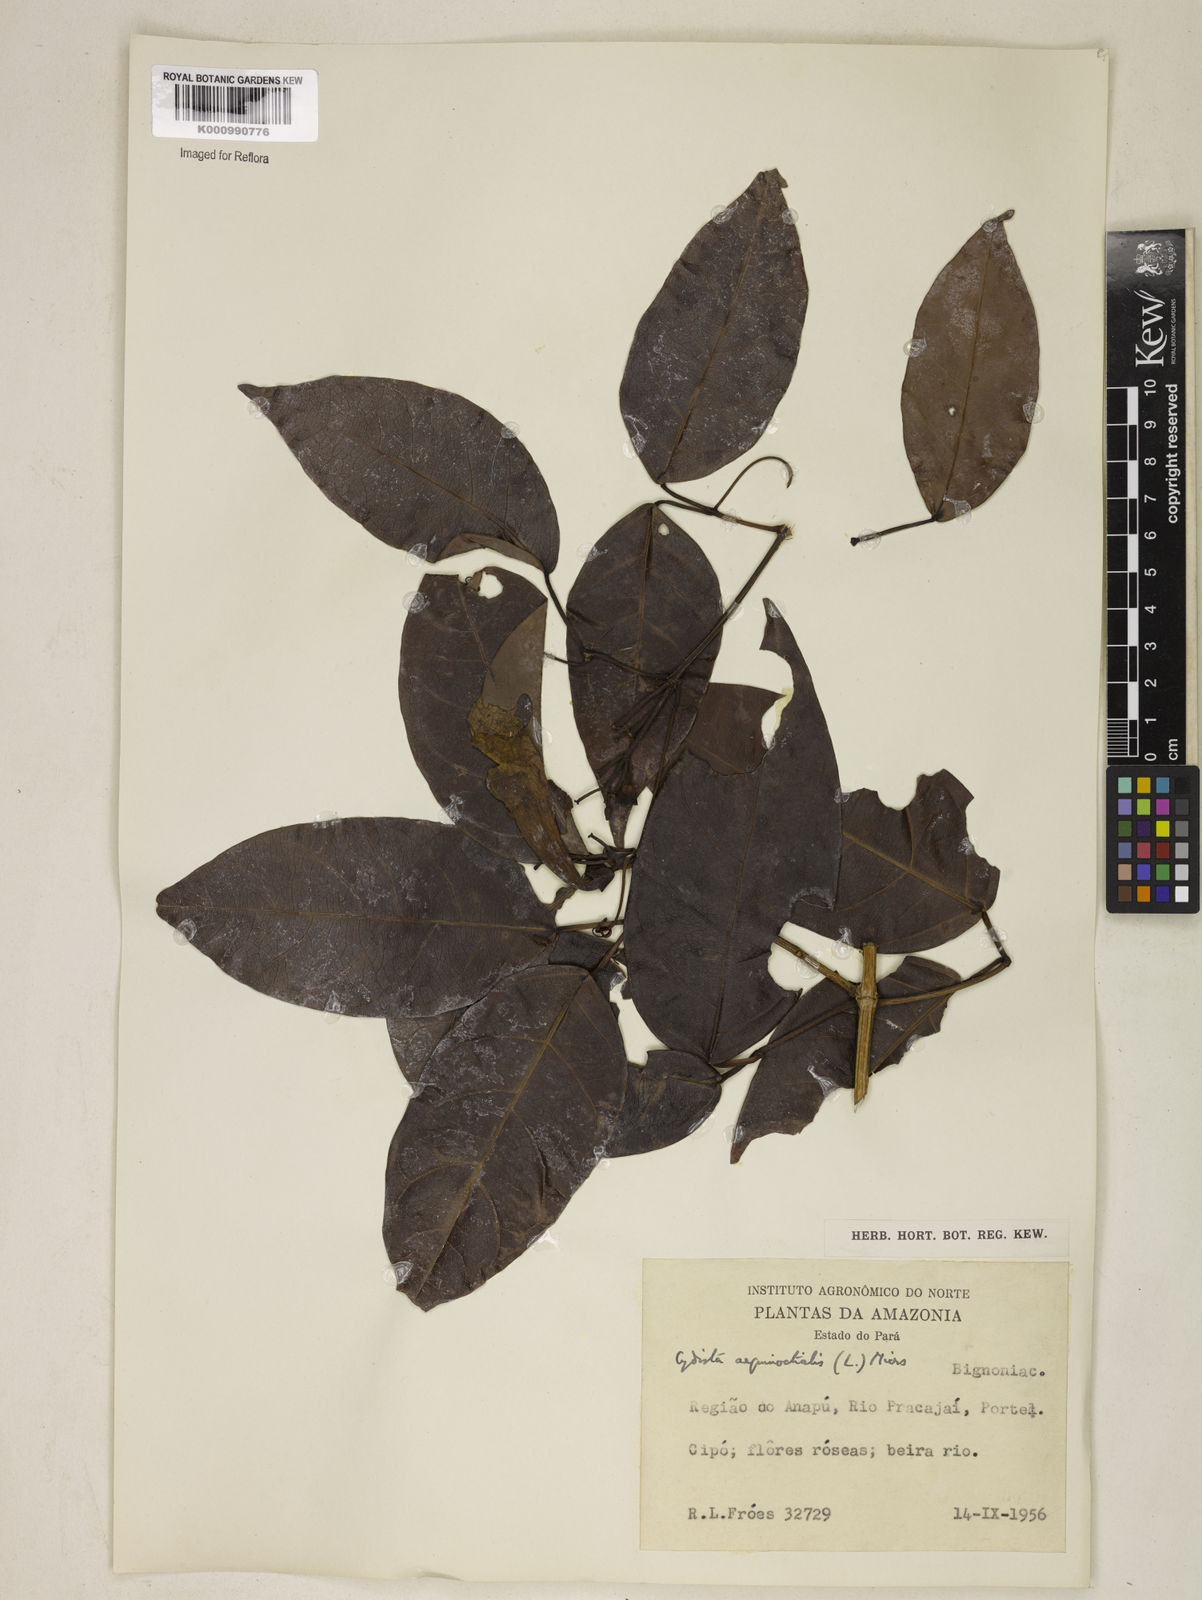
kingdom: Plantae
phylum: Tracheophyta
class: Magnoliopsida
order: Lamiales
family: Bignoniaceae
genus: Bignonia
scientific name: Bignonia aequinoctialis
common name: Garlicvine
